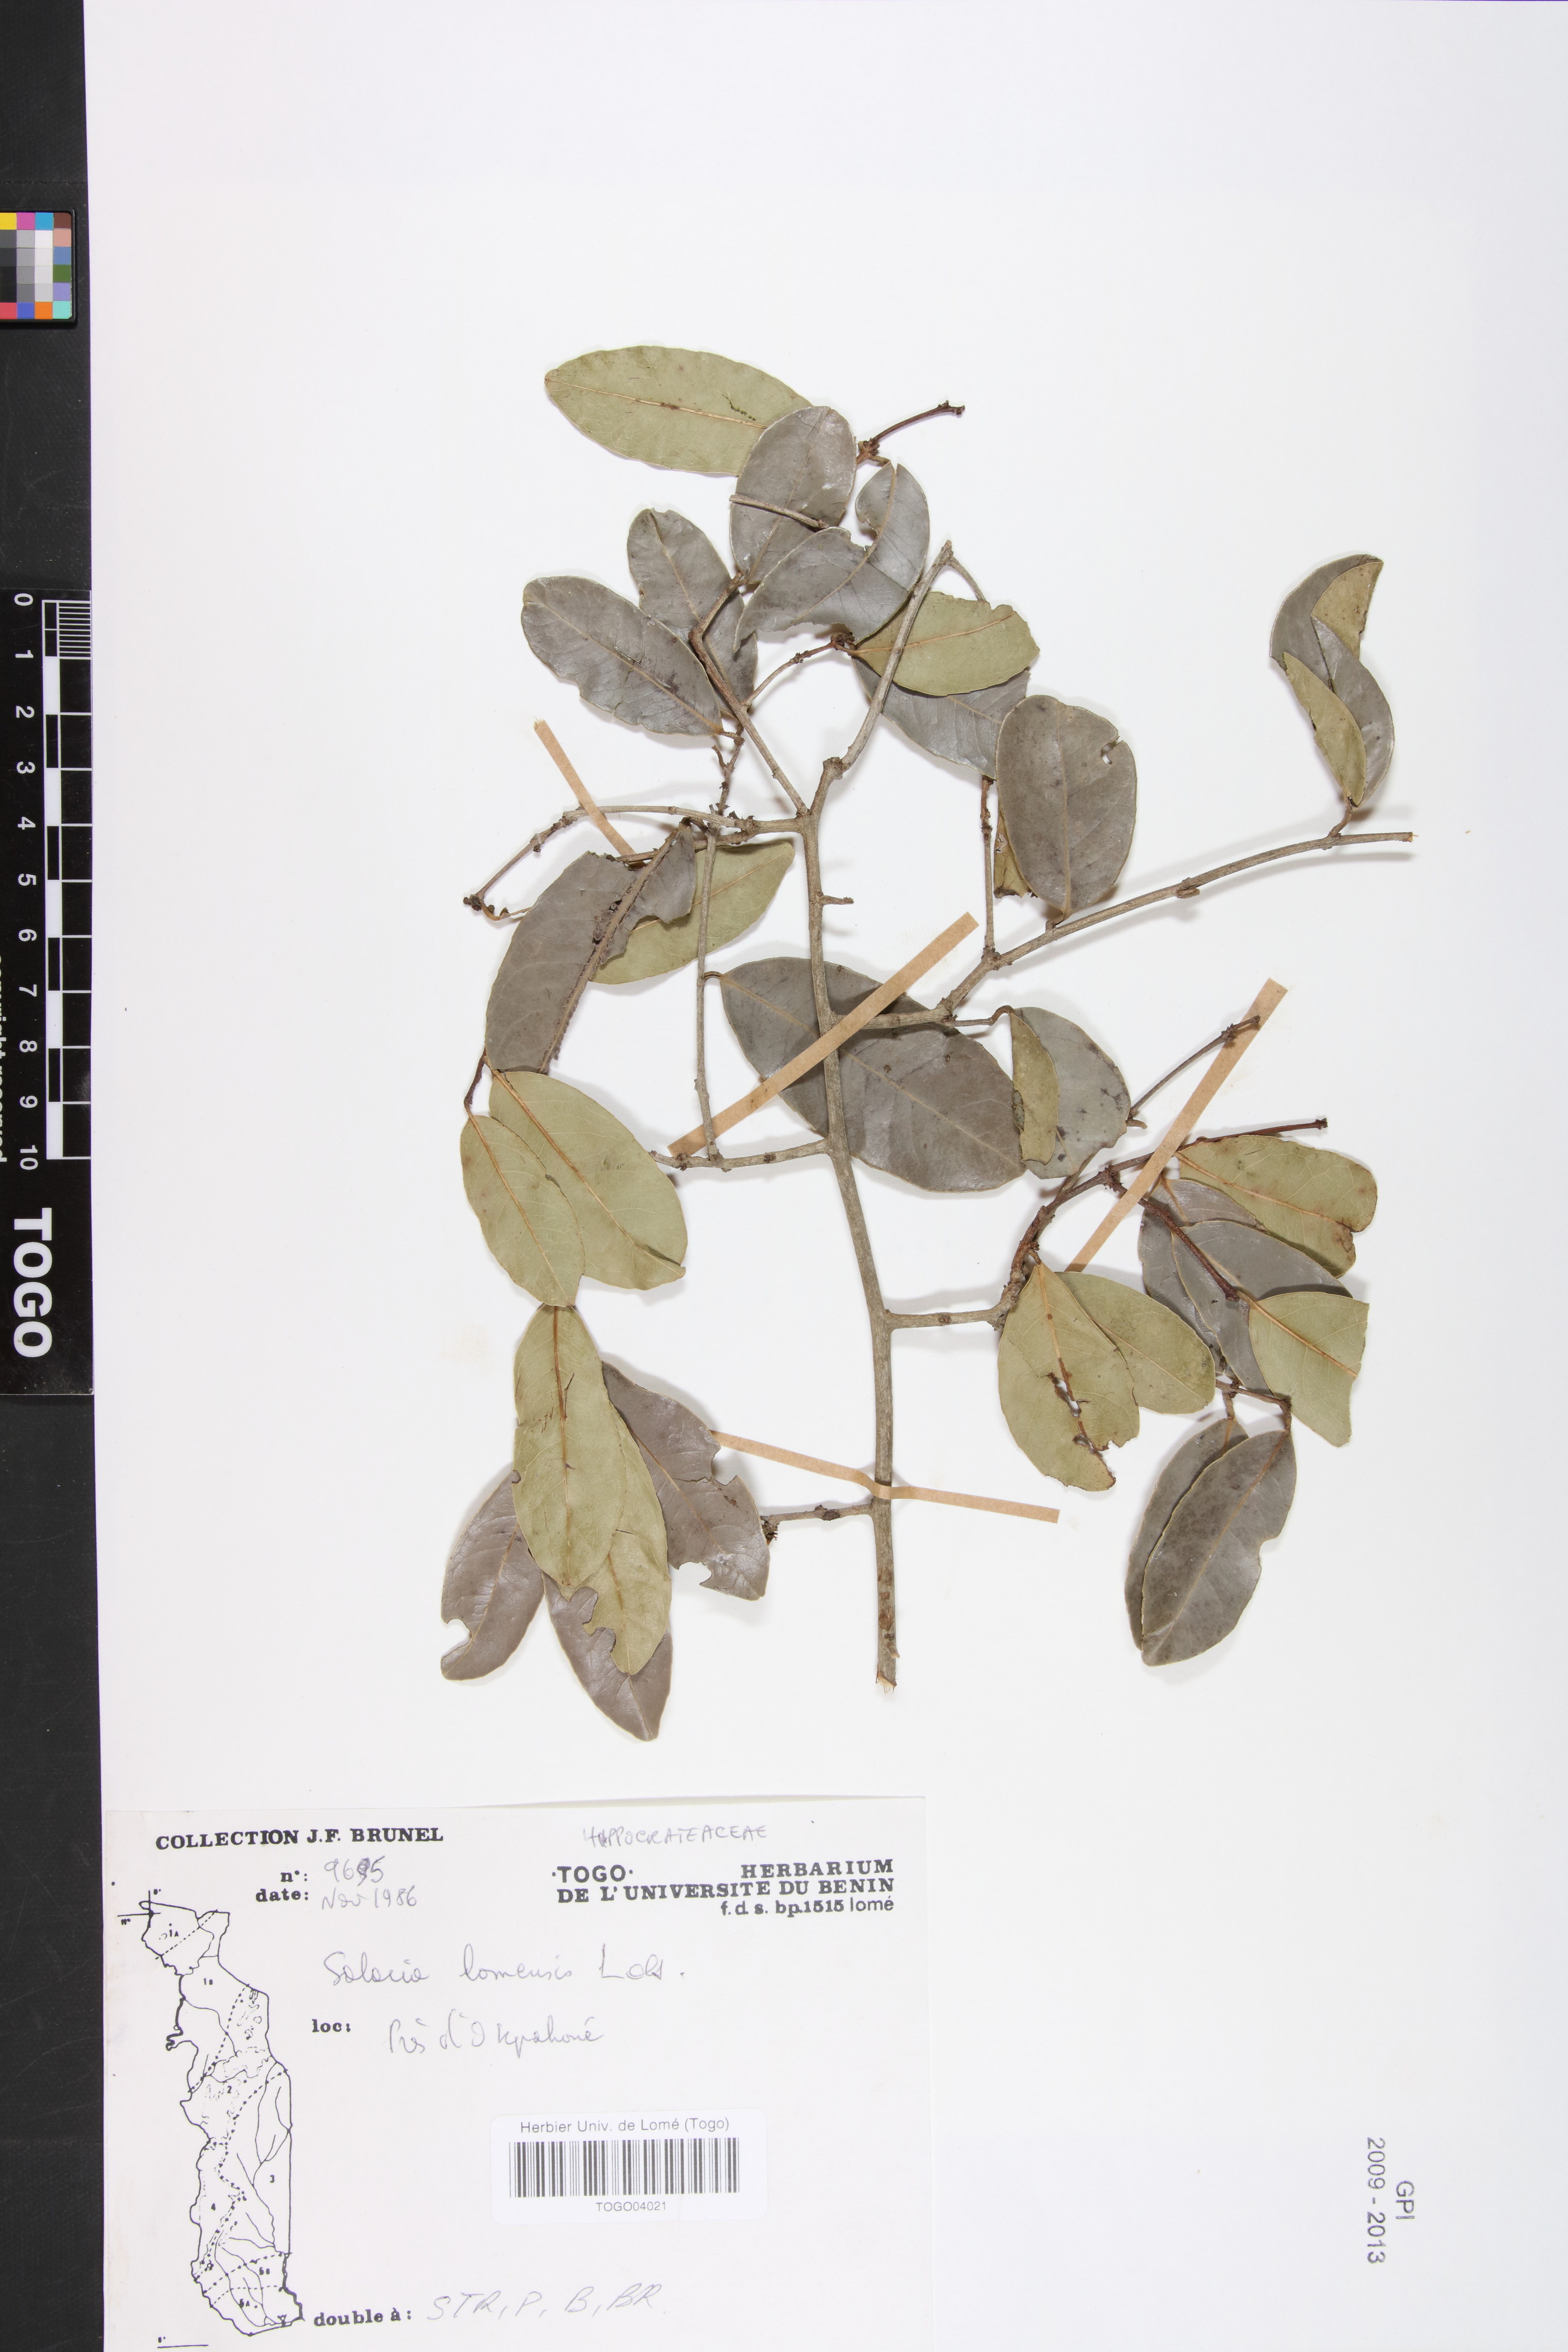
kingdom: Plantae
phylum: Tracheophyta
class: Magnoliopsida
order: Celastrales
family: Celastraceae
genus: Salacia
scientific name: Salacia stuhlmanniana
